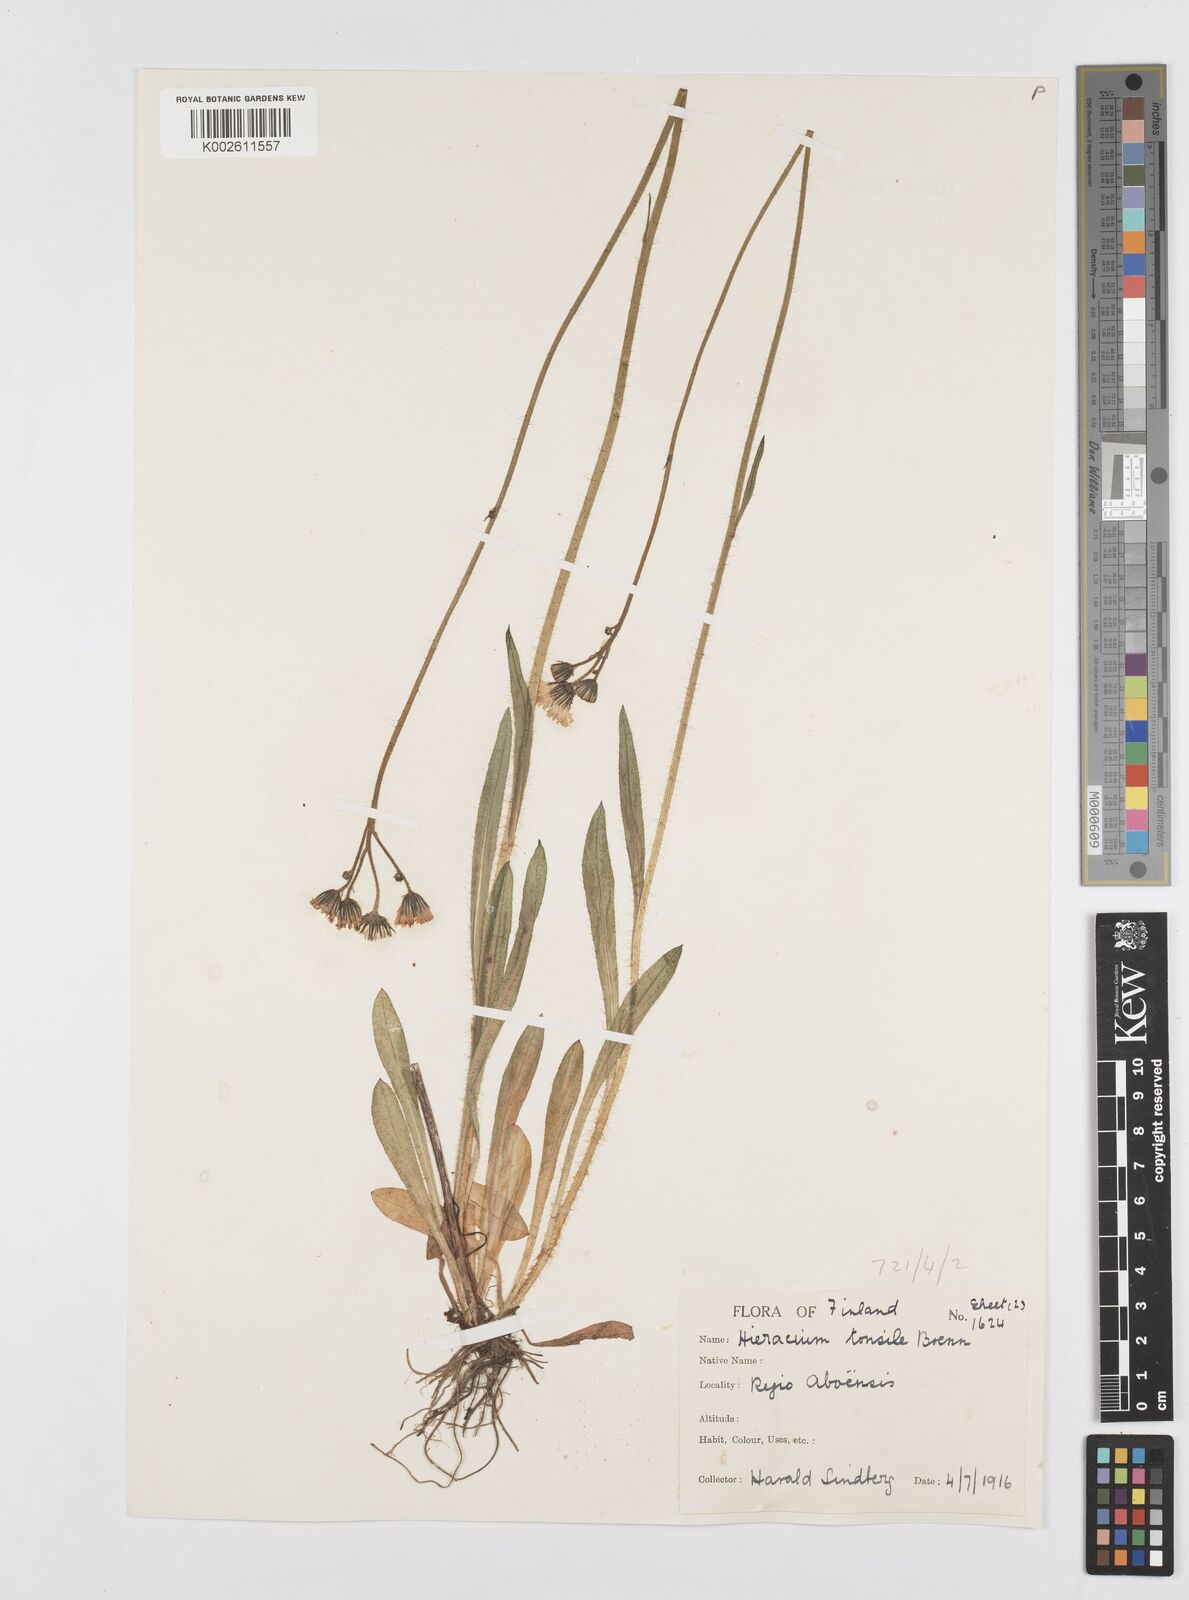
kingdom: Plantae
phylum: Tracheophyta
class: Magnoliopsida
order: Asterales
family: Asteraceae
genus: Pilosella
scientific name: Pilosella erythrochrista
